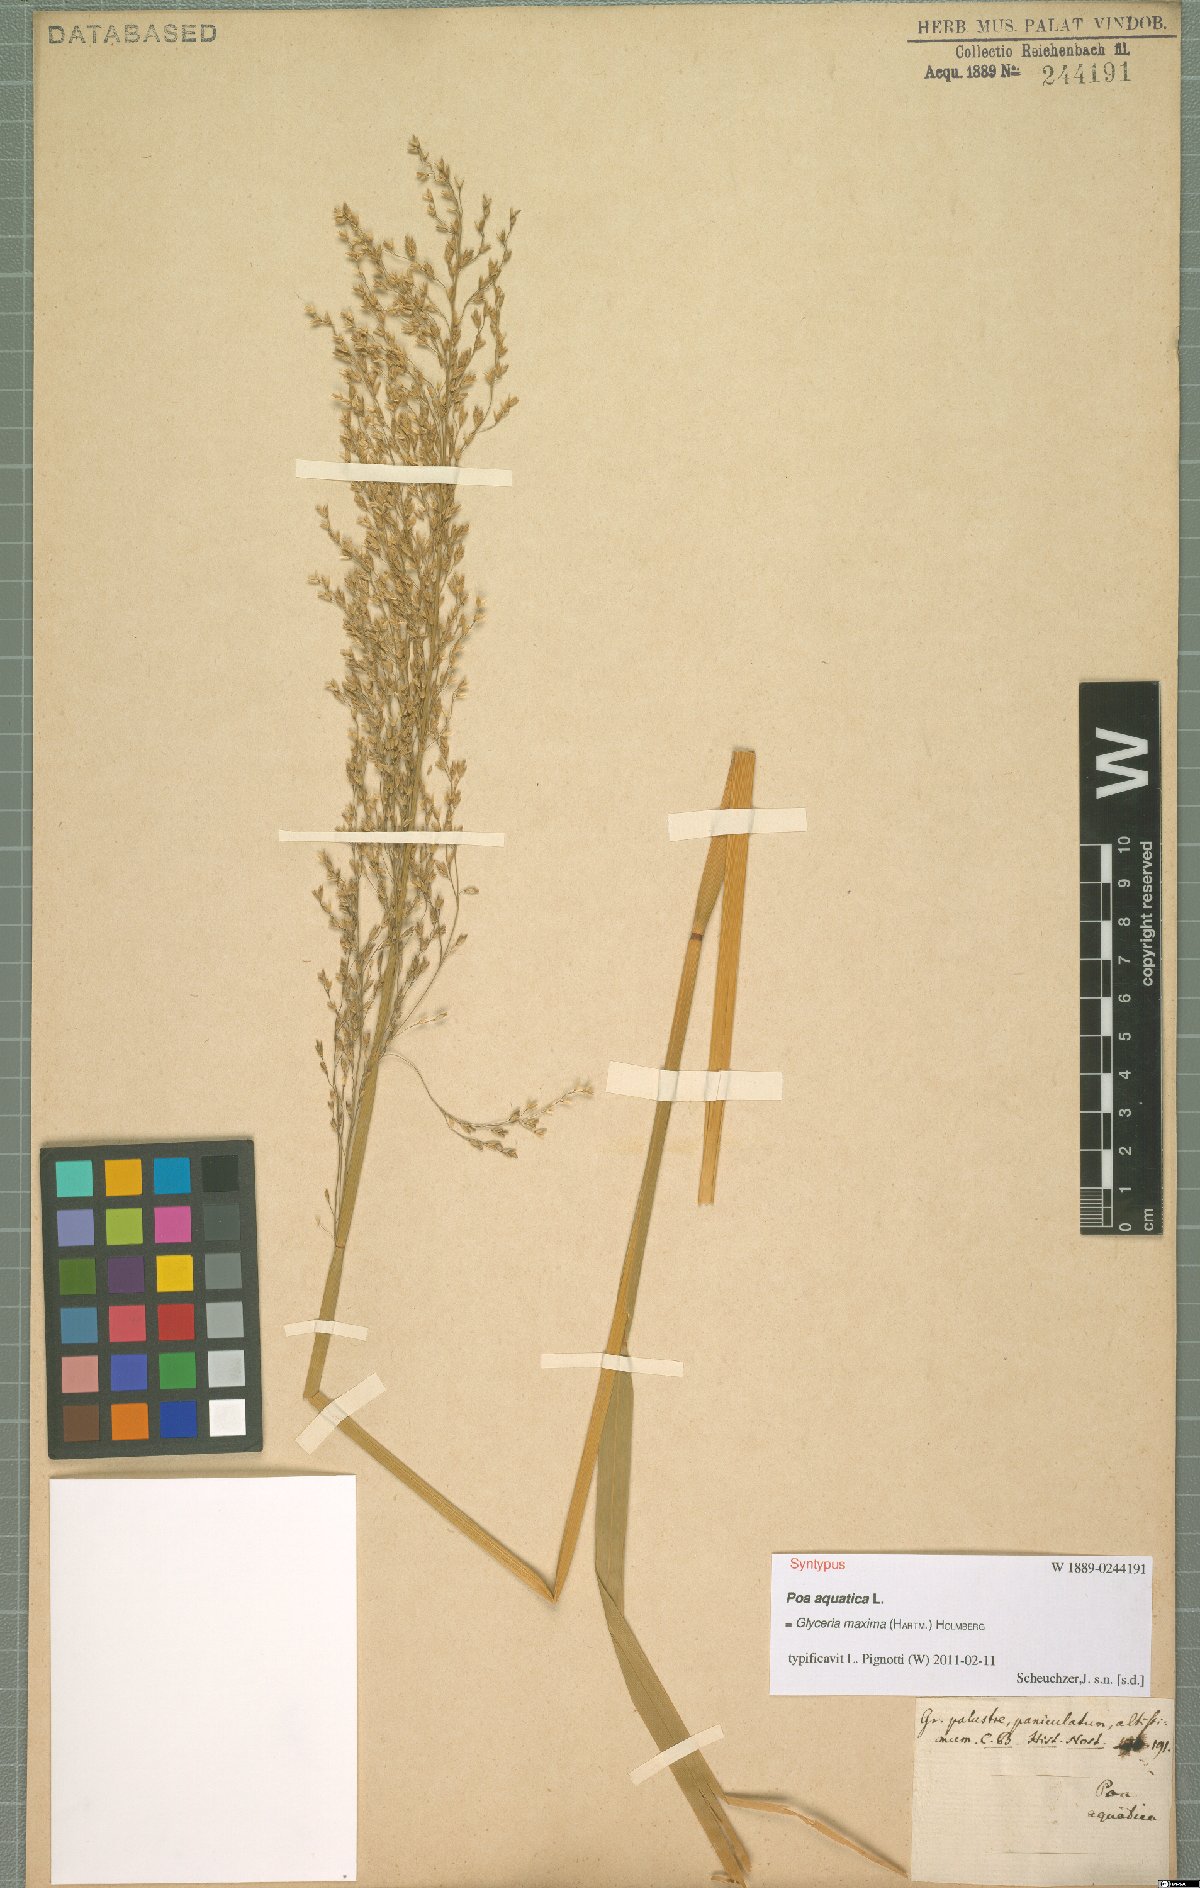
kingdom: Plantae
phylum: Tracheophyta
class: Liliopsida
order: Poales
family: Poaceae
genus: Glyceria
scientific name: Glyceria maxima
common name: Reed mannagrass
